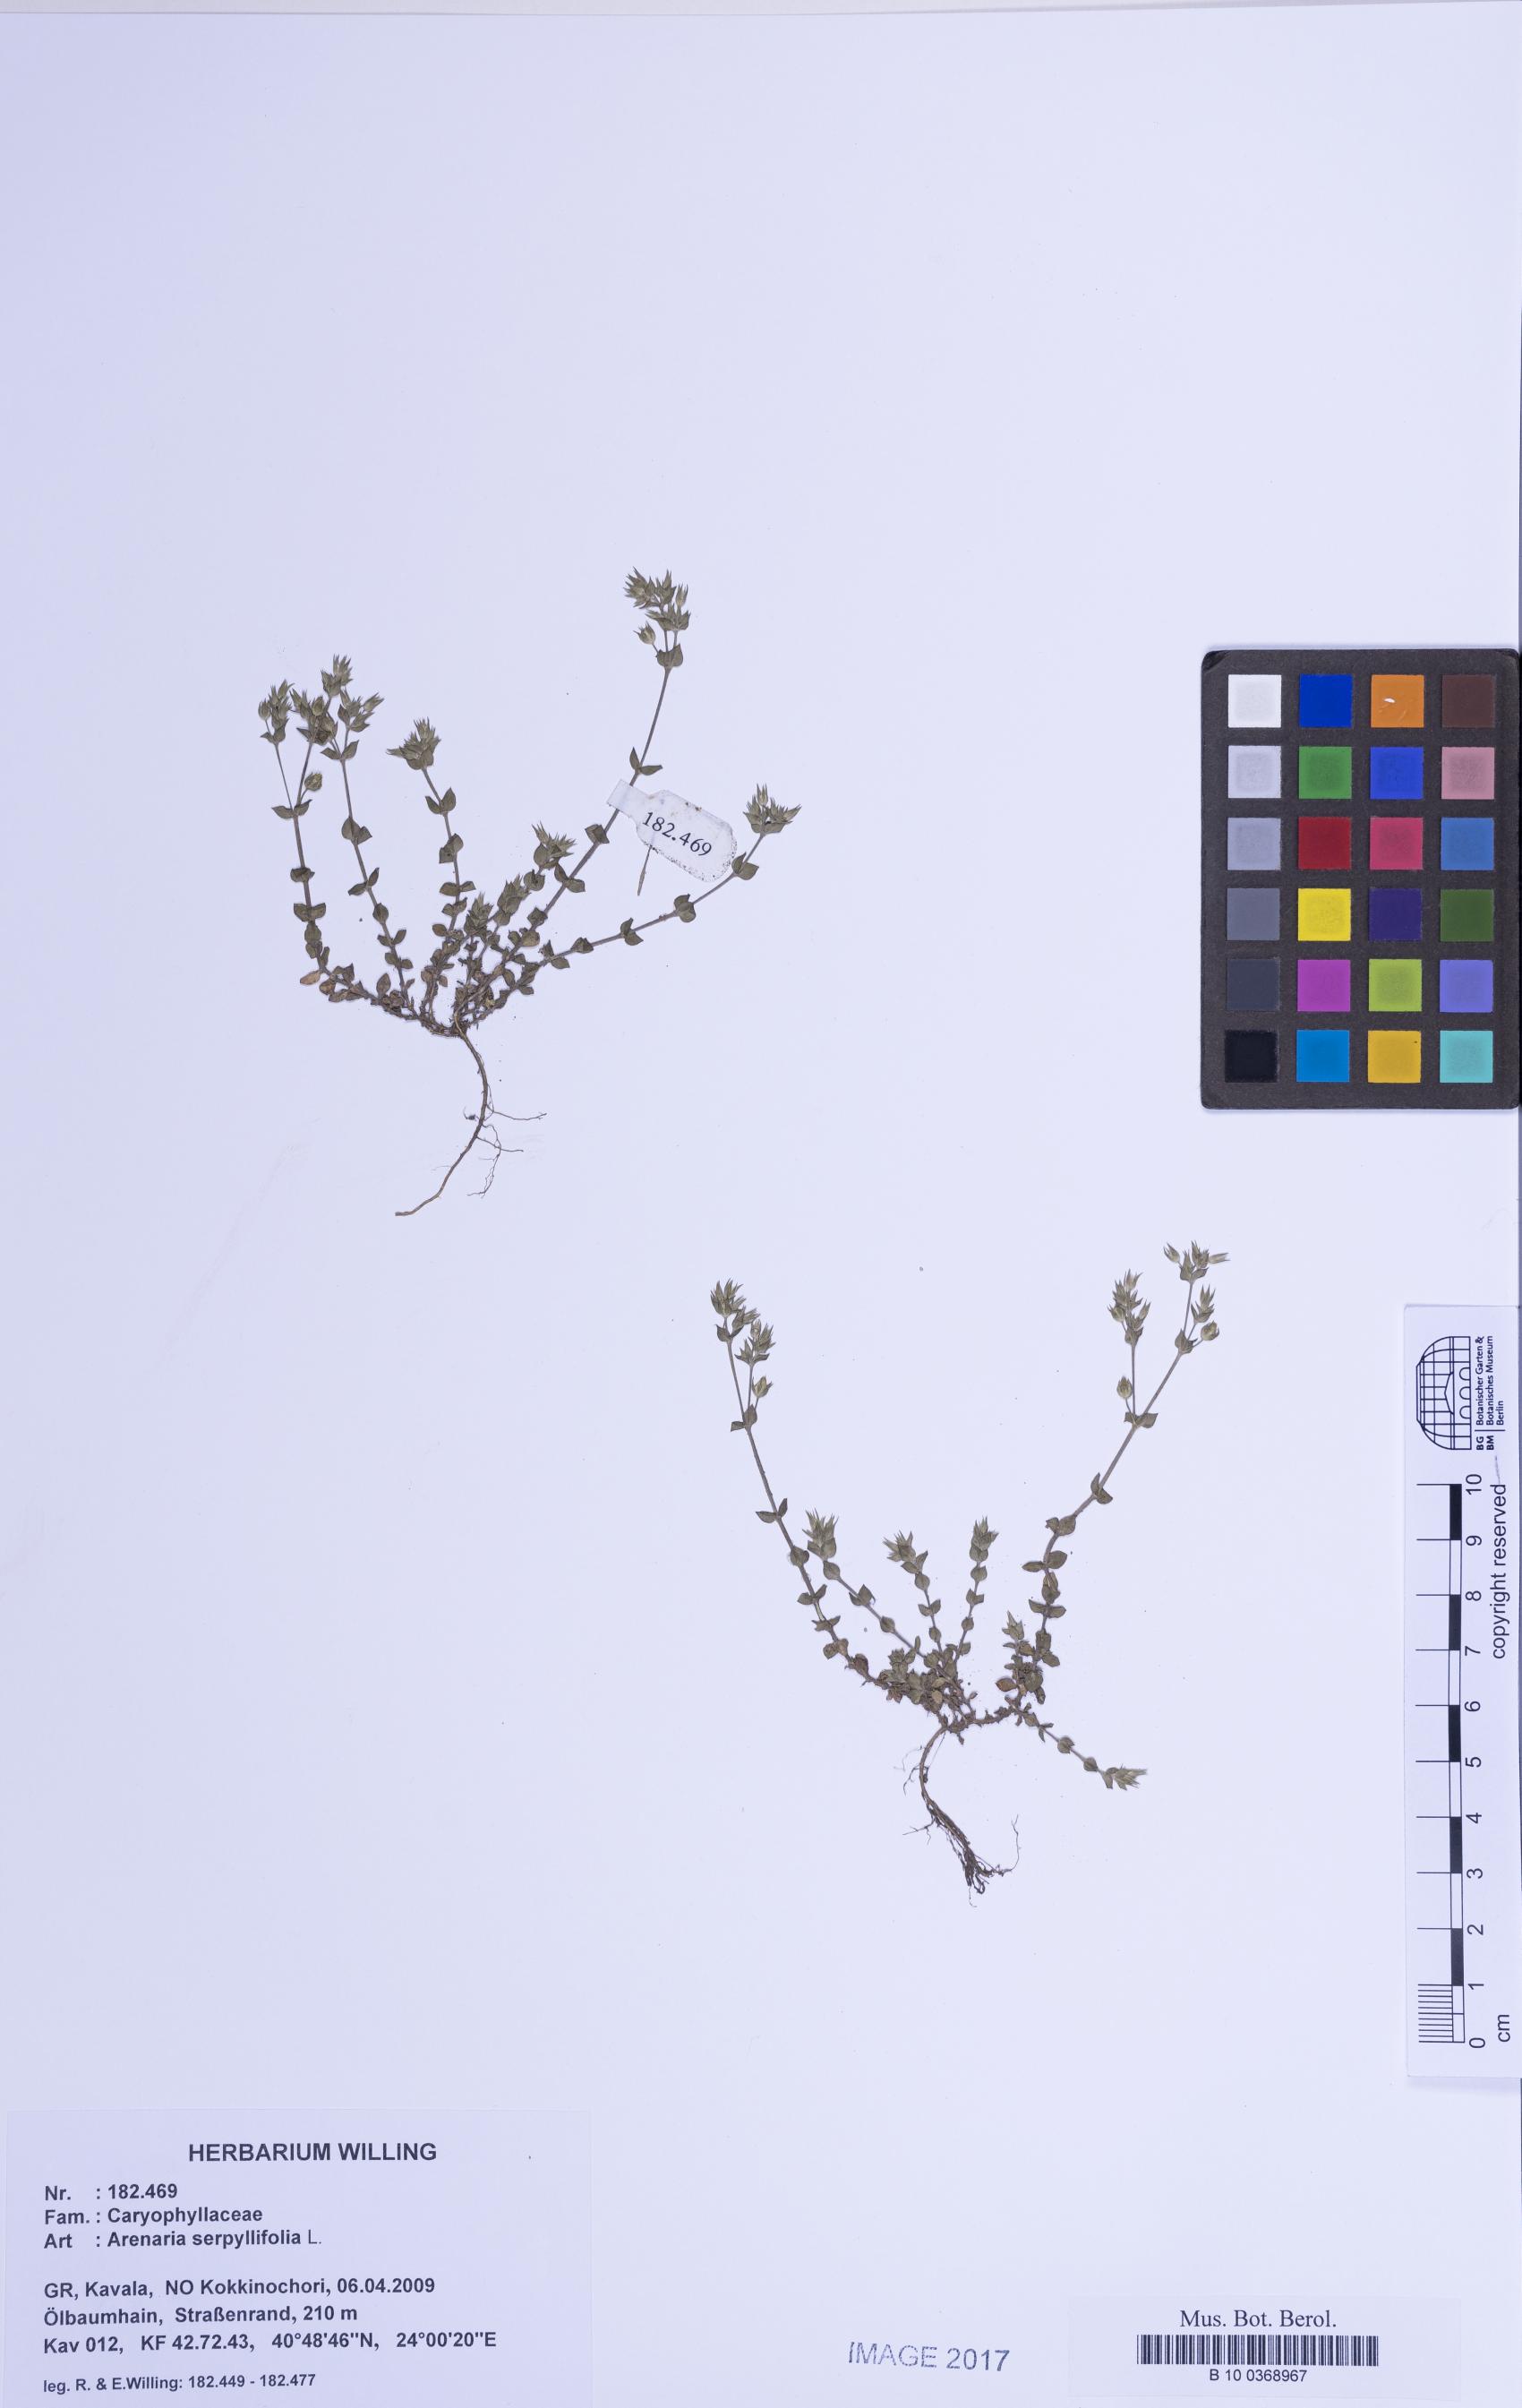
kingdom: Plantae
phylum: Tracheophyta
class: Magnoliopsida
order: Caryophyllales
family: Caryophyllaceae
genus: Arenaria
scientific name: Arenaria serpyllifolia
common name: Thyme-leaved sandwort
